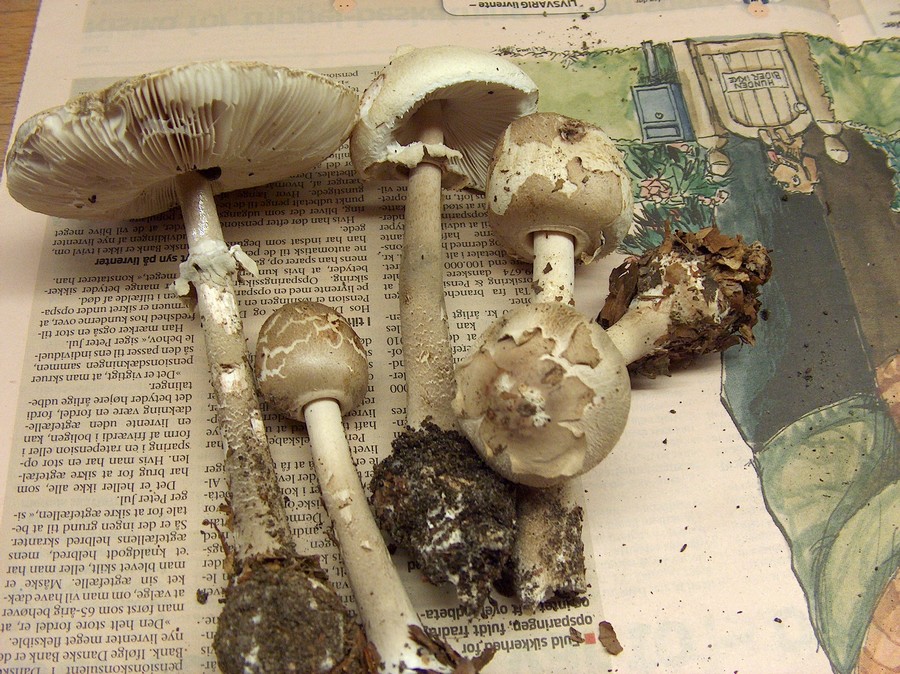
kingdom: Fungi
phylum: Basidiomycota
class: Agaricomycetes
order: Agaricales
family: Agaricaceae
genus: Macrolepiota
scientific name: Macrolepiota mastoidea
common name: puklet kæmpeparasolhat
